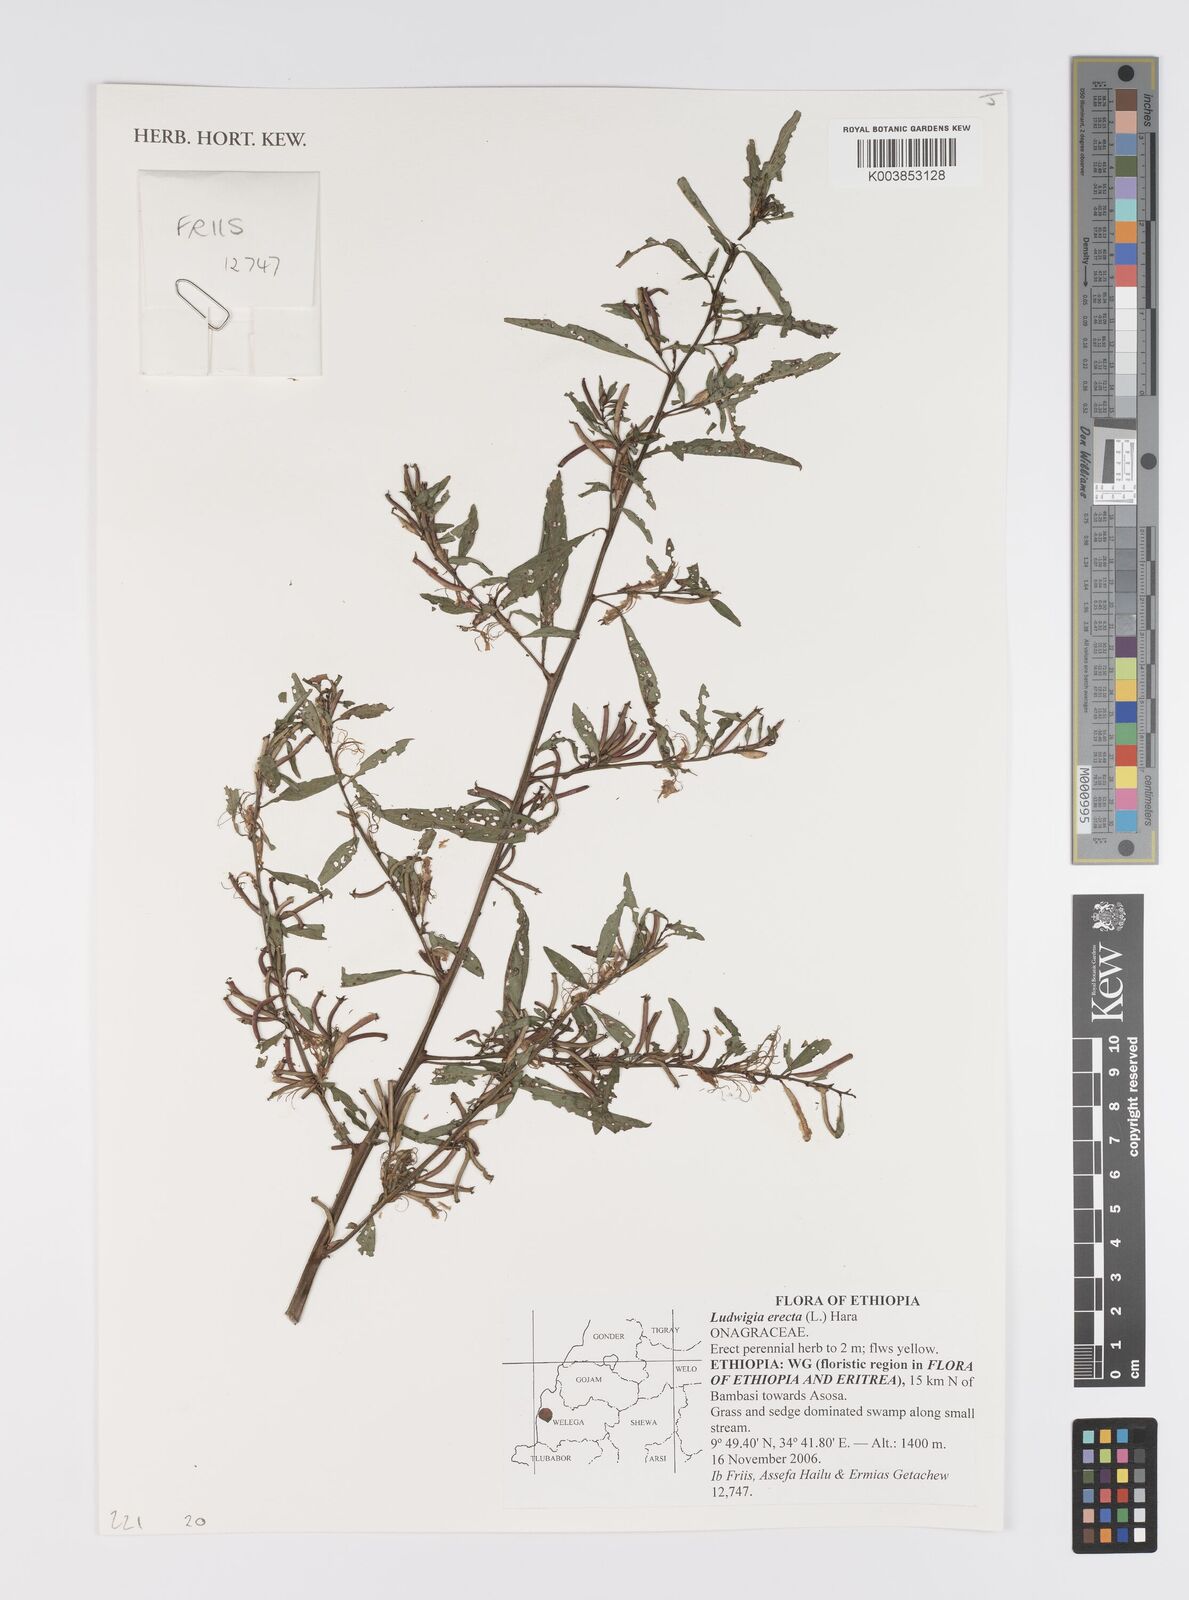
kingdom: Plantae
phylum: Tracheophyta
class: Magnoliopsida
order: Myrtales
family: Onagraceae
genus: Ludwigia
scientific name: Ludwigia erecta
